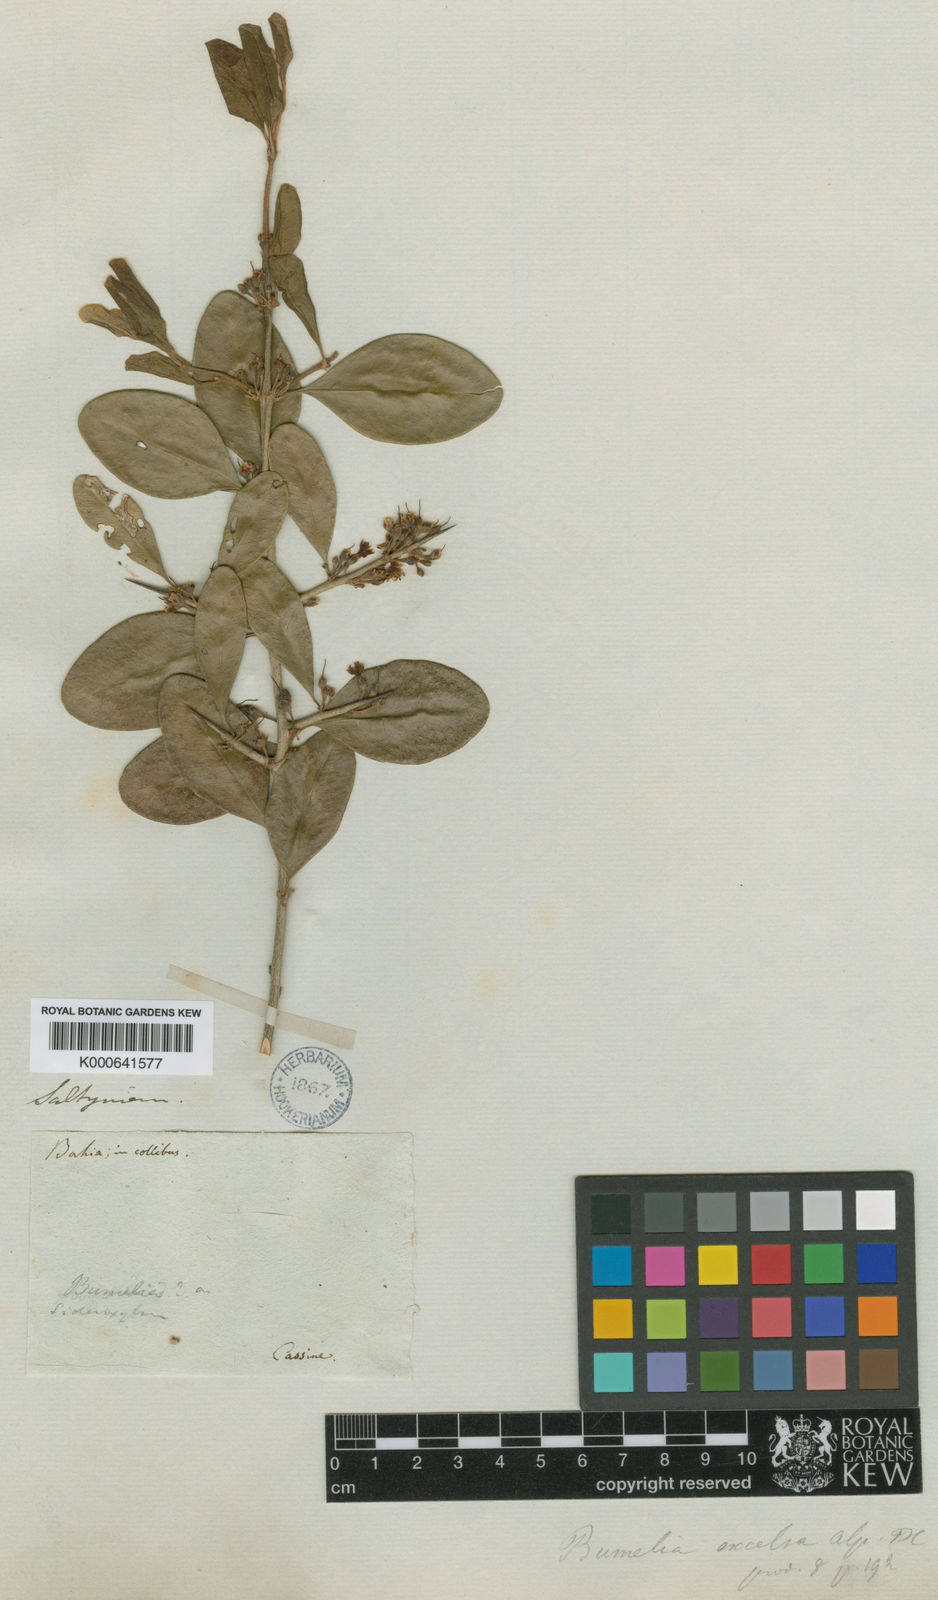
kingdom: Plantae
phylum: Tracheophyta
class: Magnoliopsida
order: Ericales
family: Sapotaceae
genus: Sideroxylon
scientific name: Sideroxylon obtusifolium
